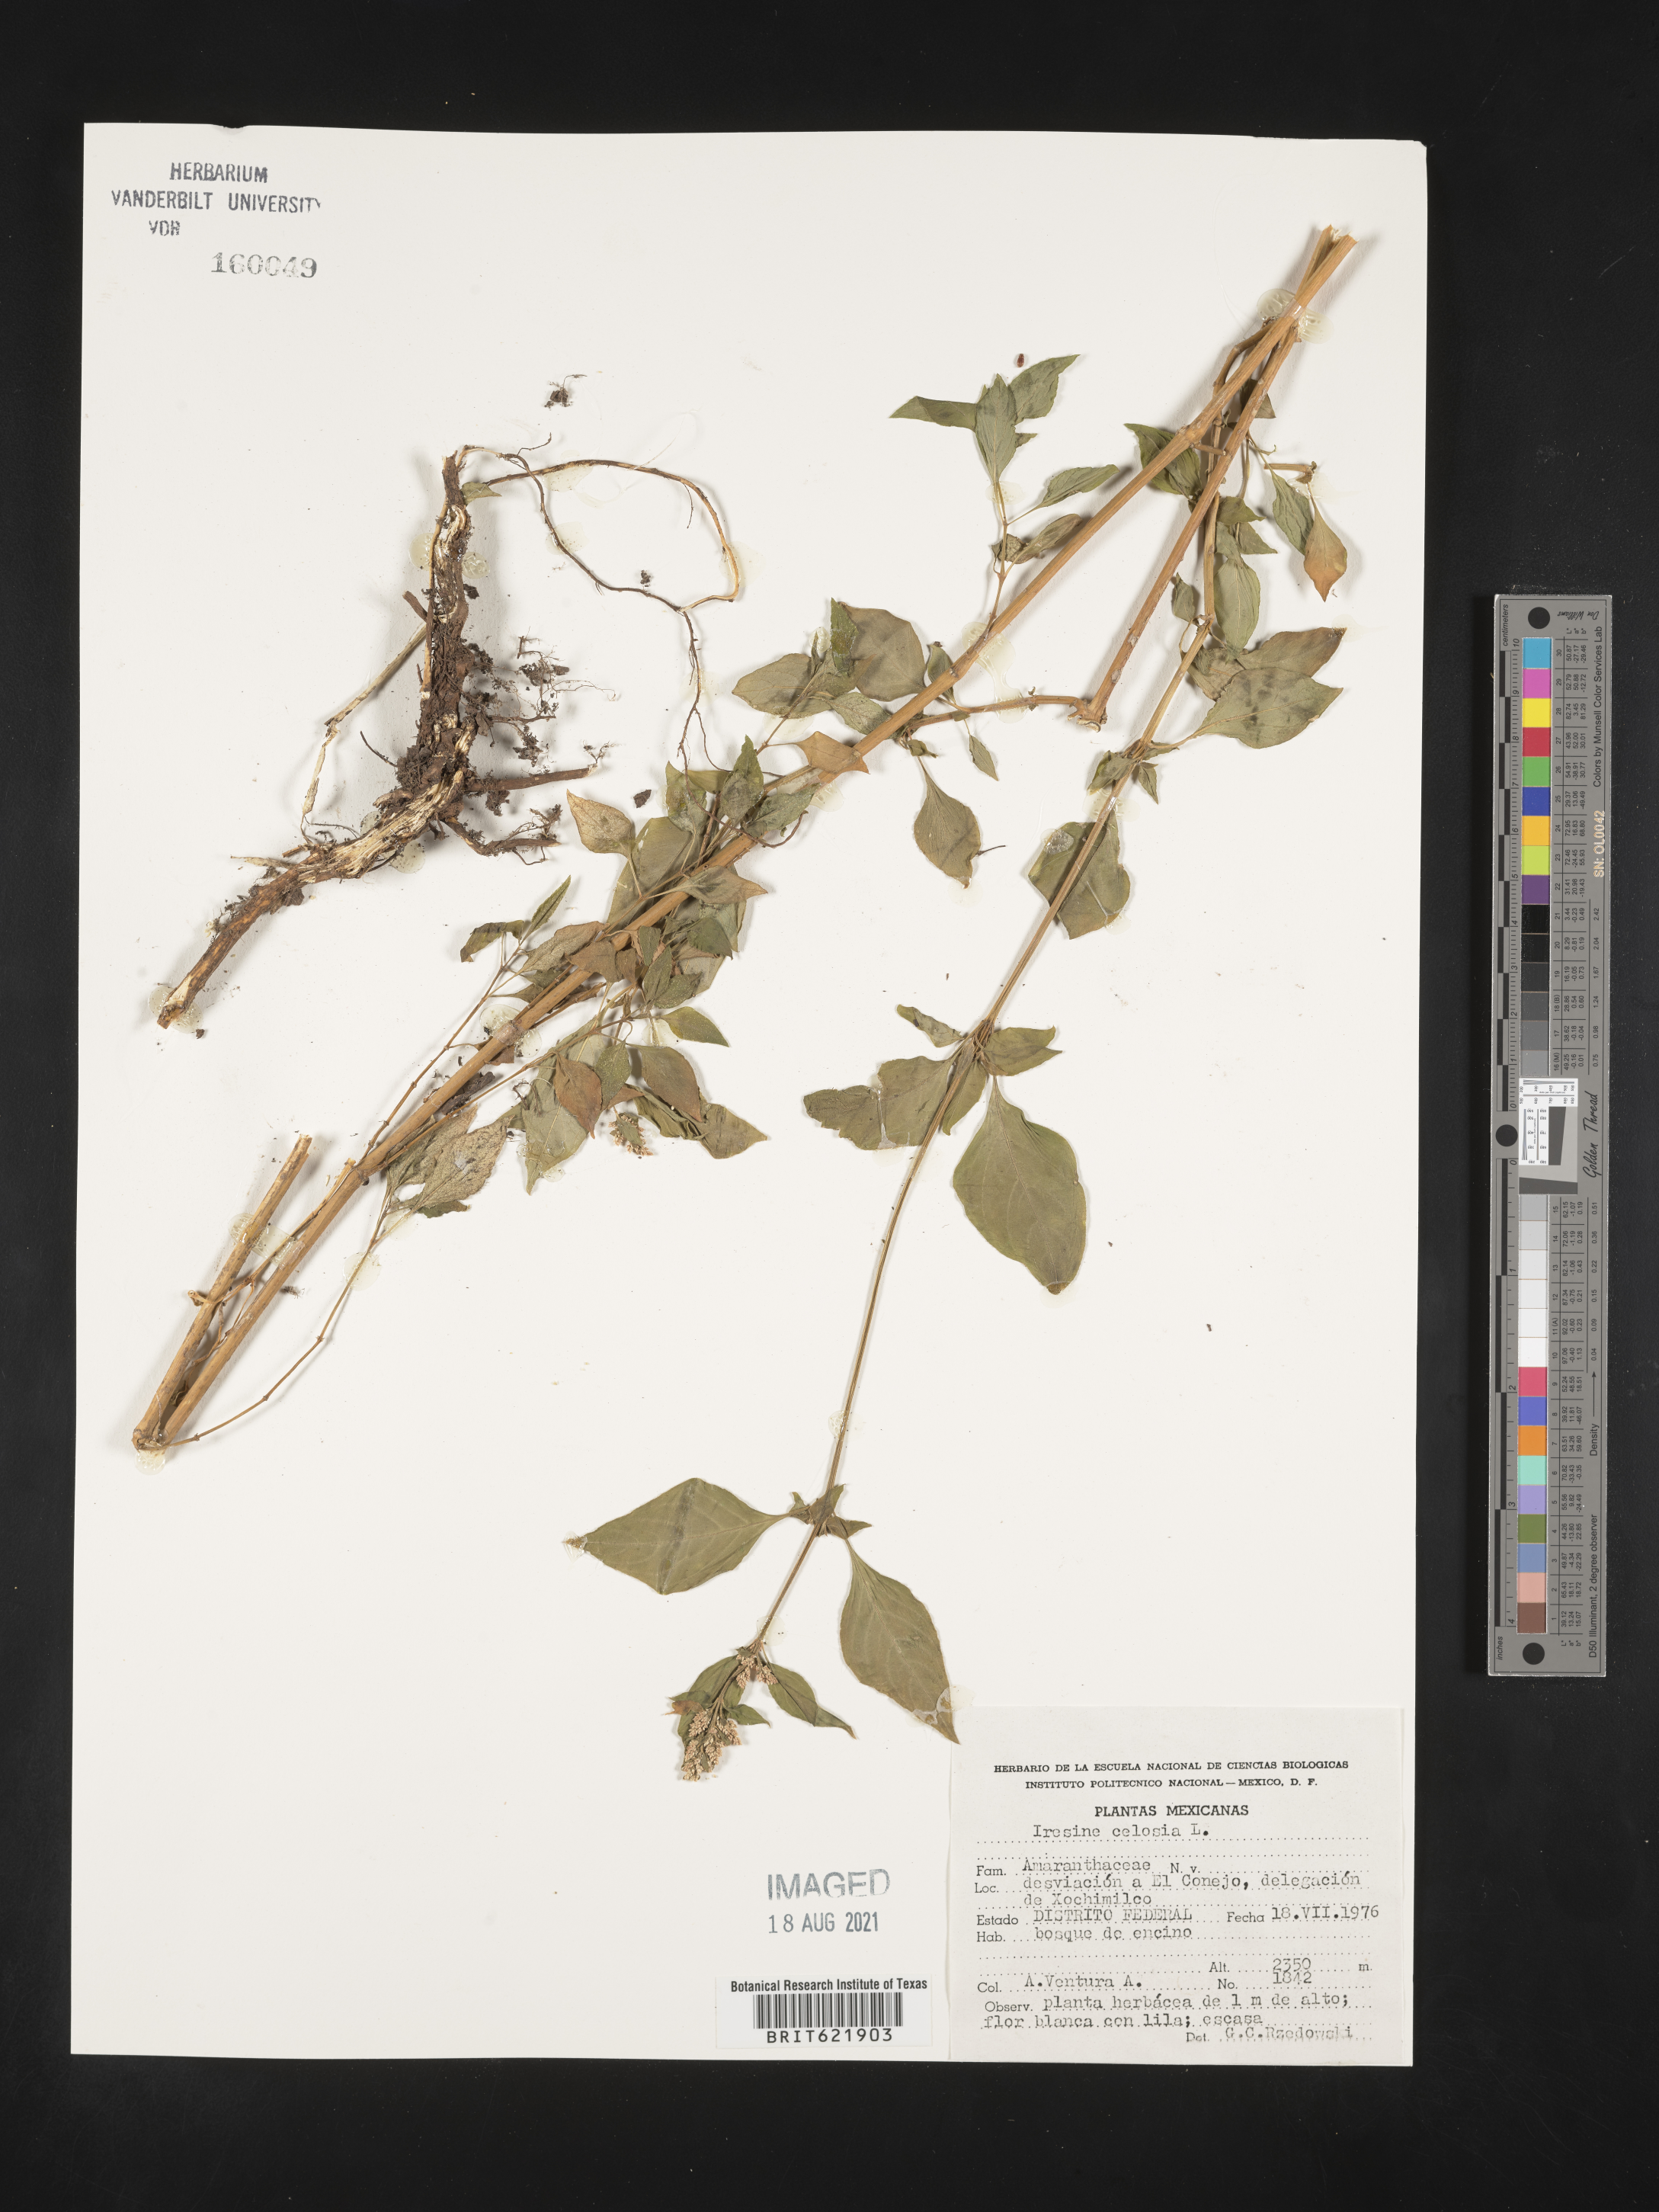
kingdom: Plantae
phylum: Tracheophyta
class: Magnoliopsida
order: Caryophyllales
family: Amaranthaceae
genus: Iresine
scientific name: Iresine
